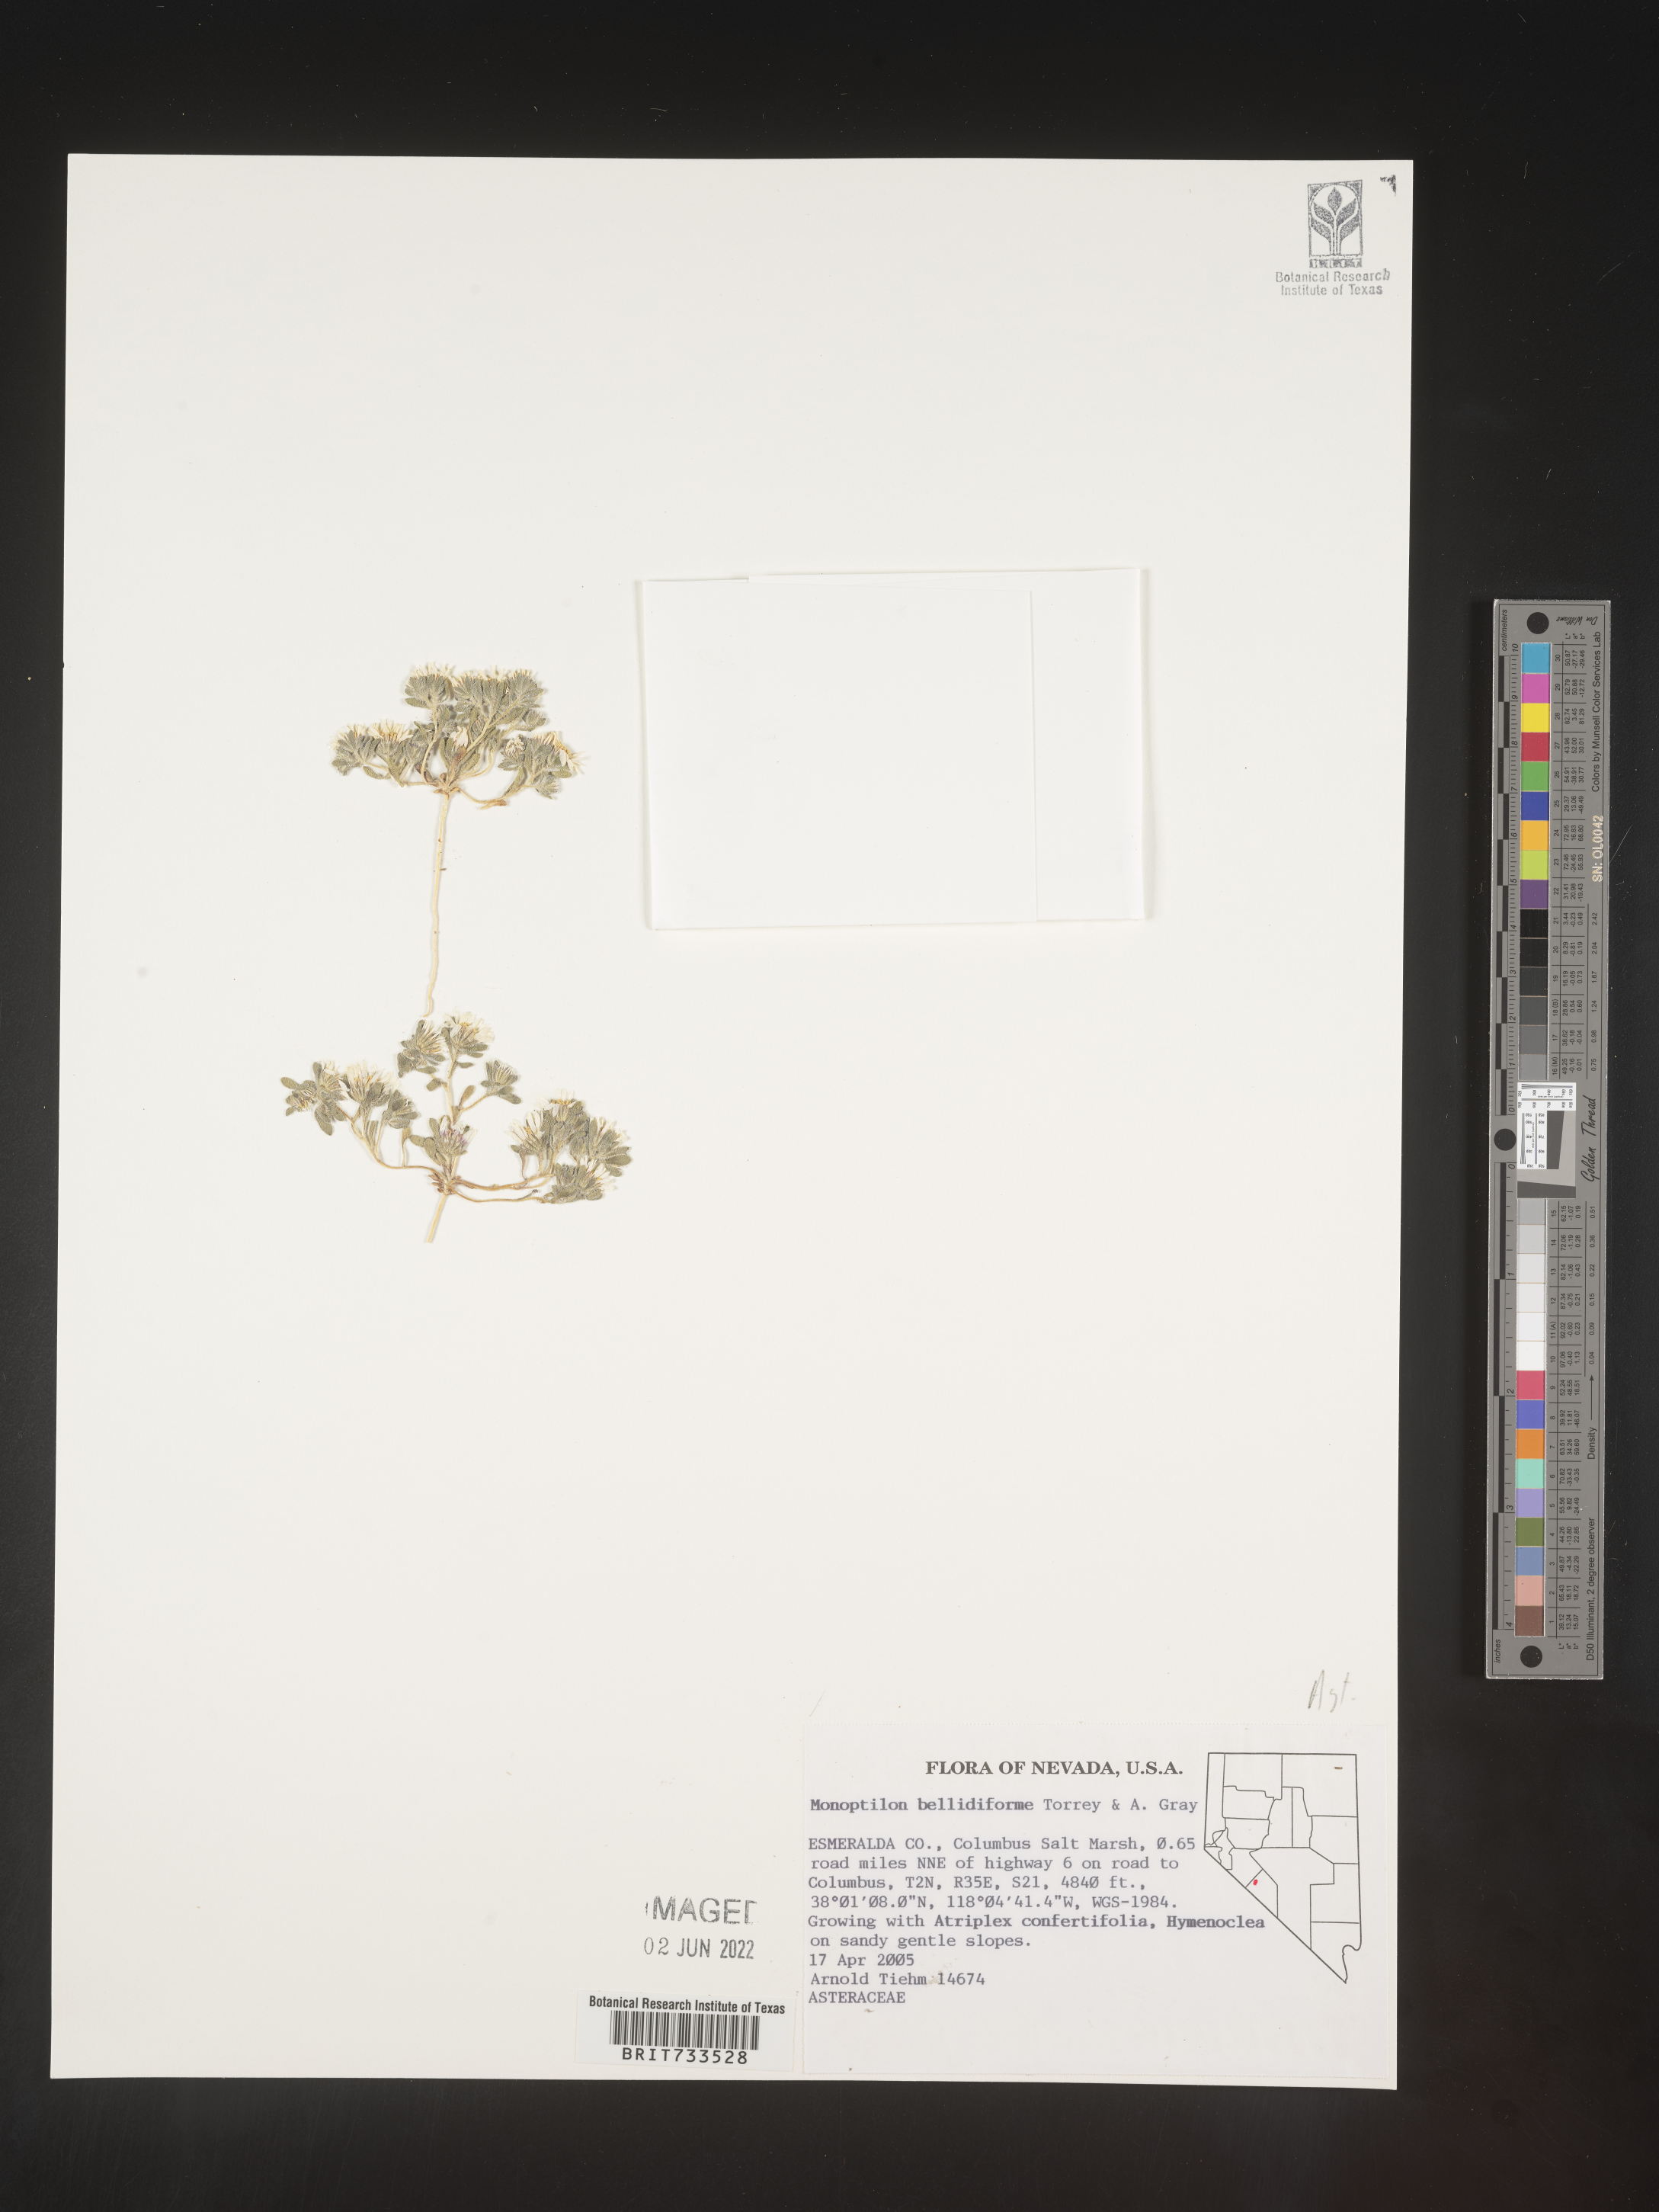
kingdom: Plantae
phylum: Tracheophyta
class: Magnoliopsida
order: Asterales
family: Asteraceae
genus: Monoptilon
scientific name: Monoptilon
